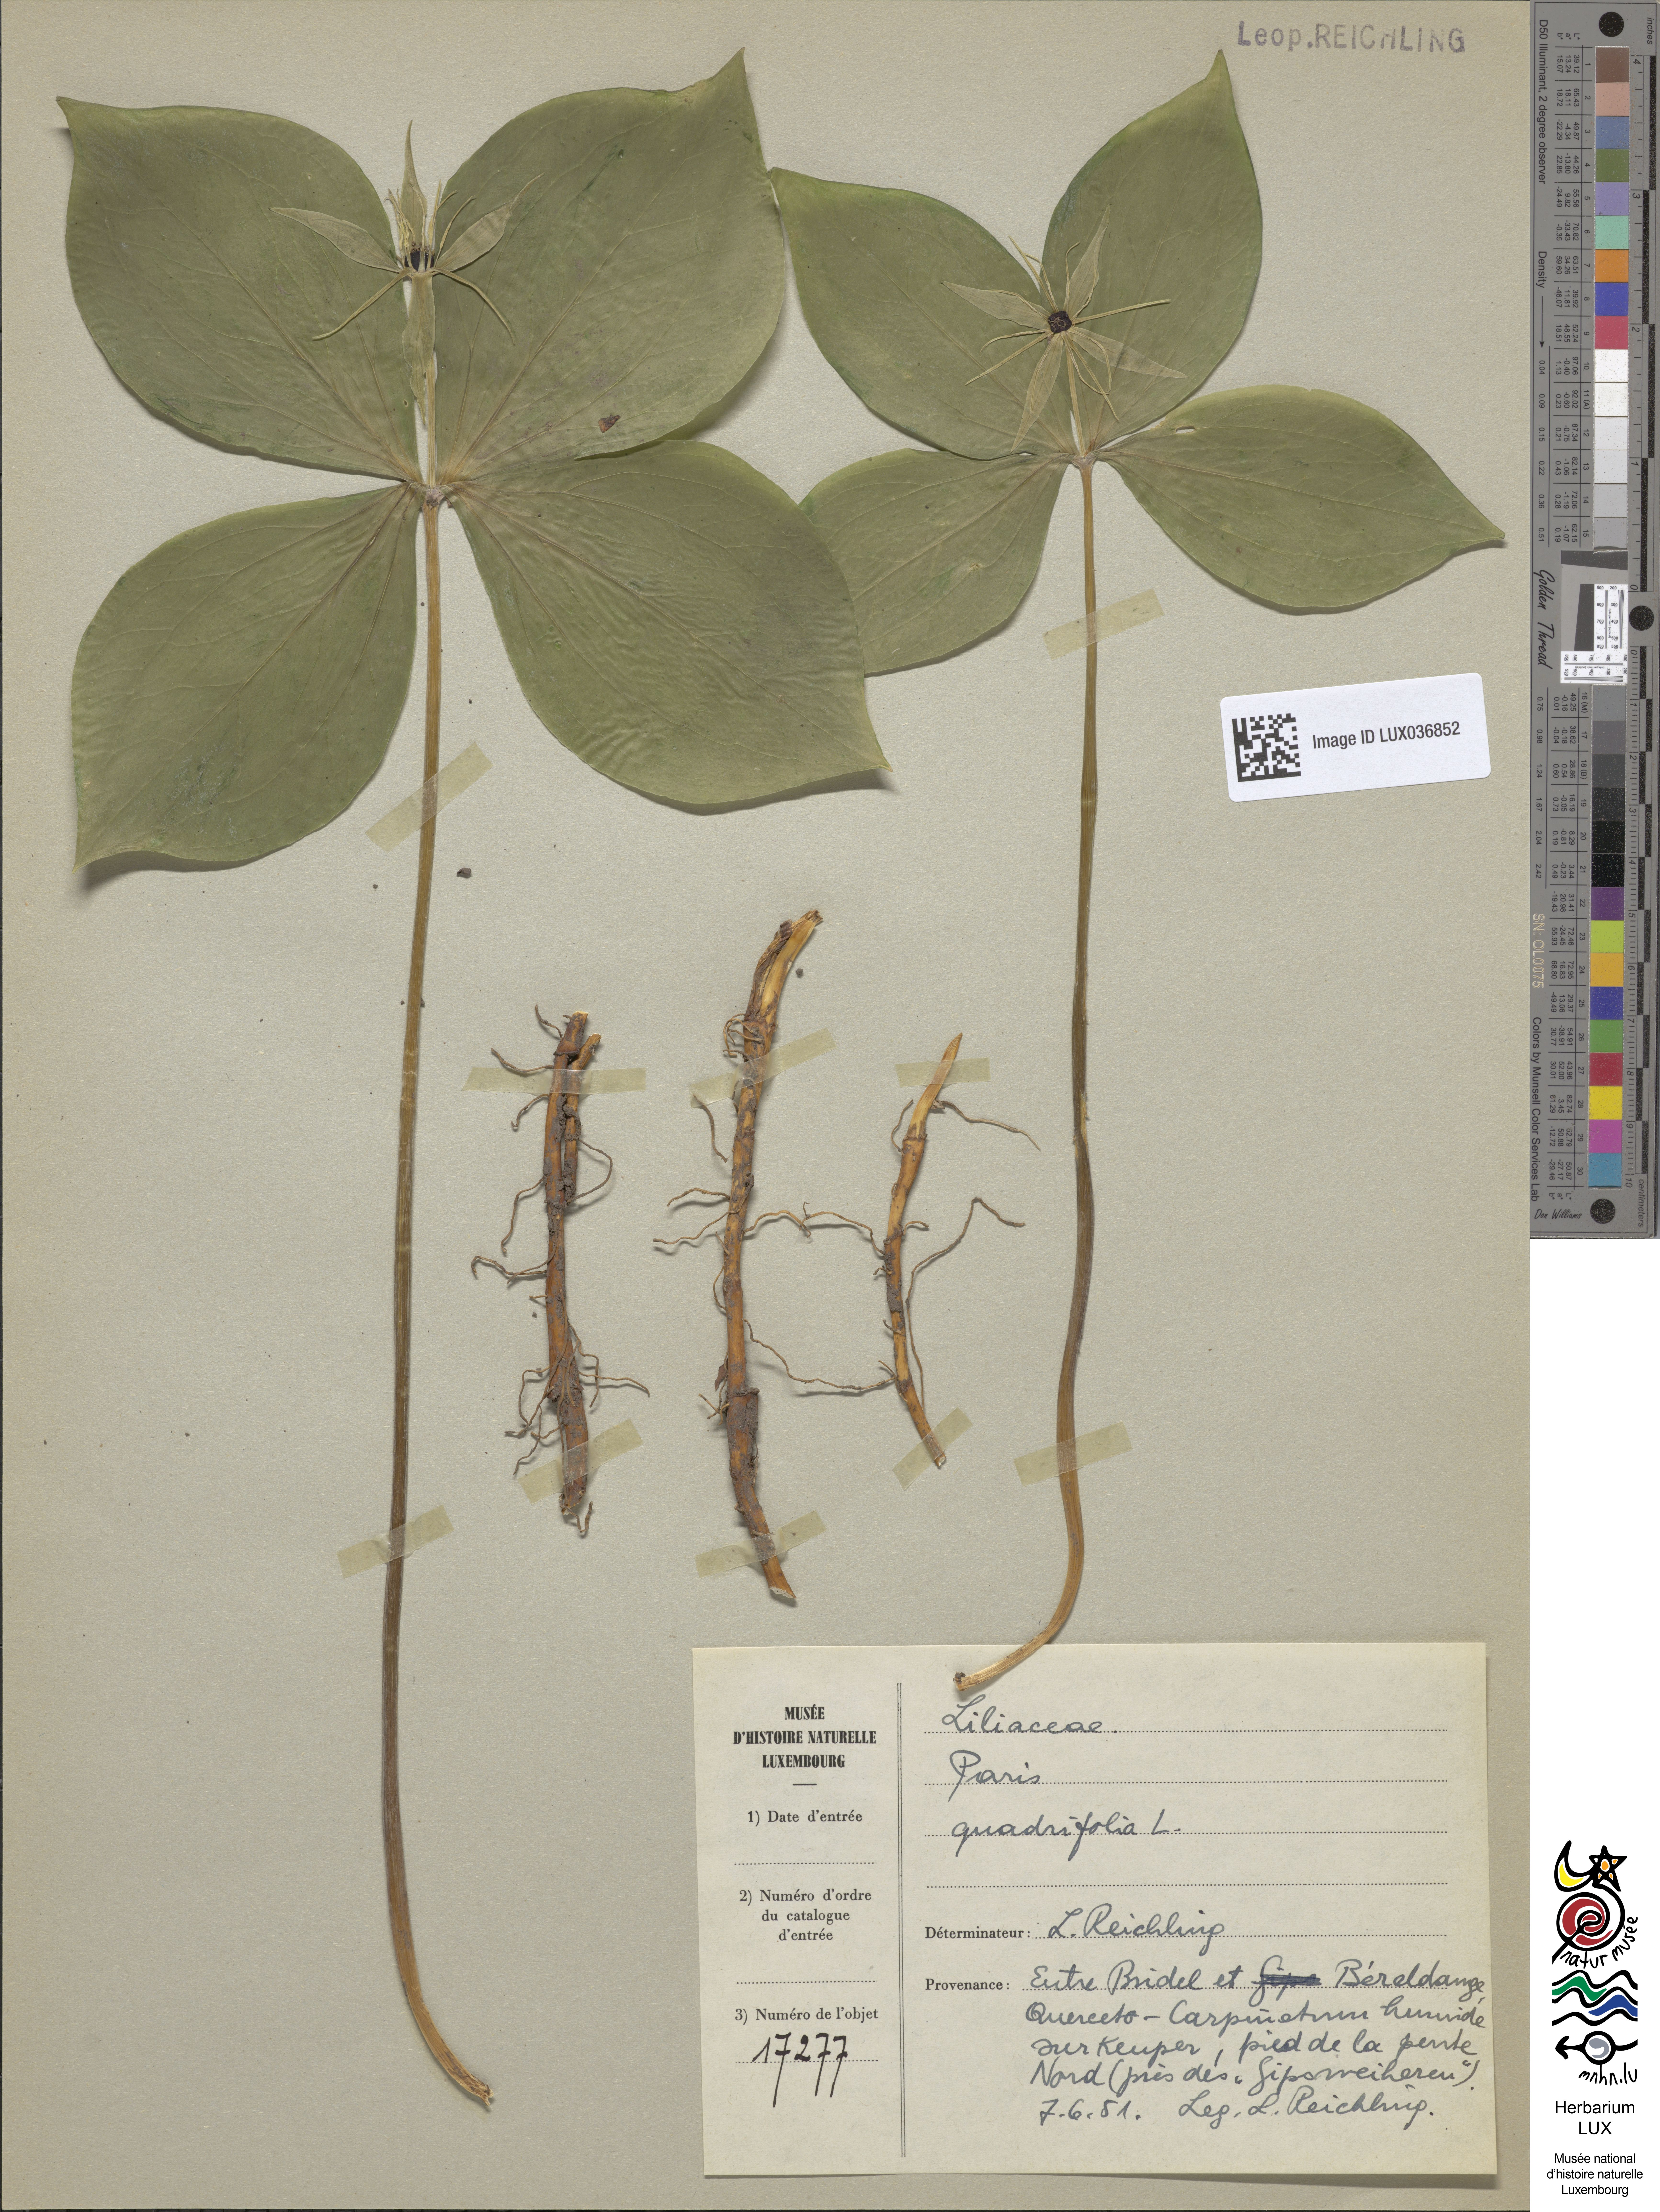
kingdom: Plantae
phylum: Tracheophyta
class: Liliopsida
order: Liliales
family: Melanthiaceae
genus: Paris
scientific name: Paris quadrifolia
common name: Herb-paris
